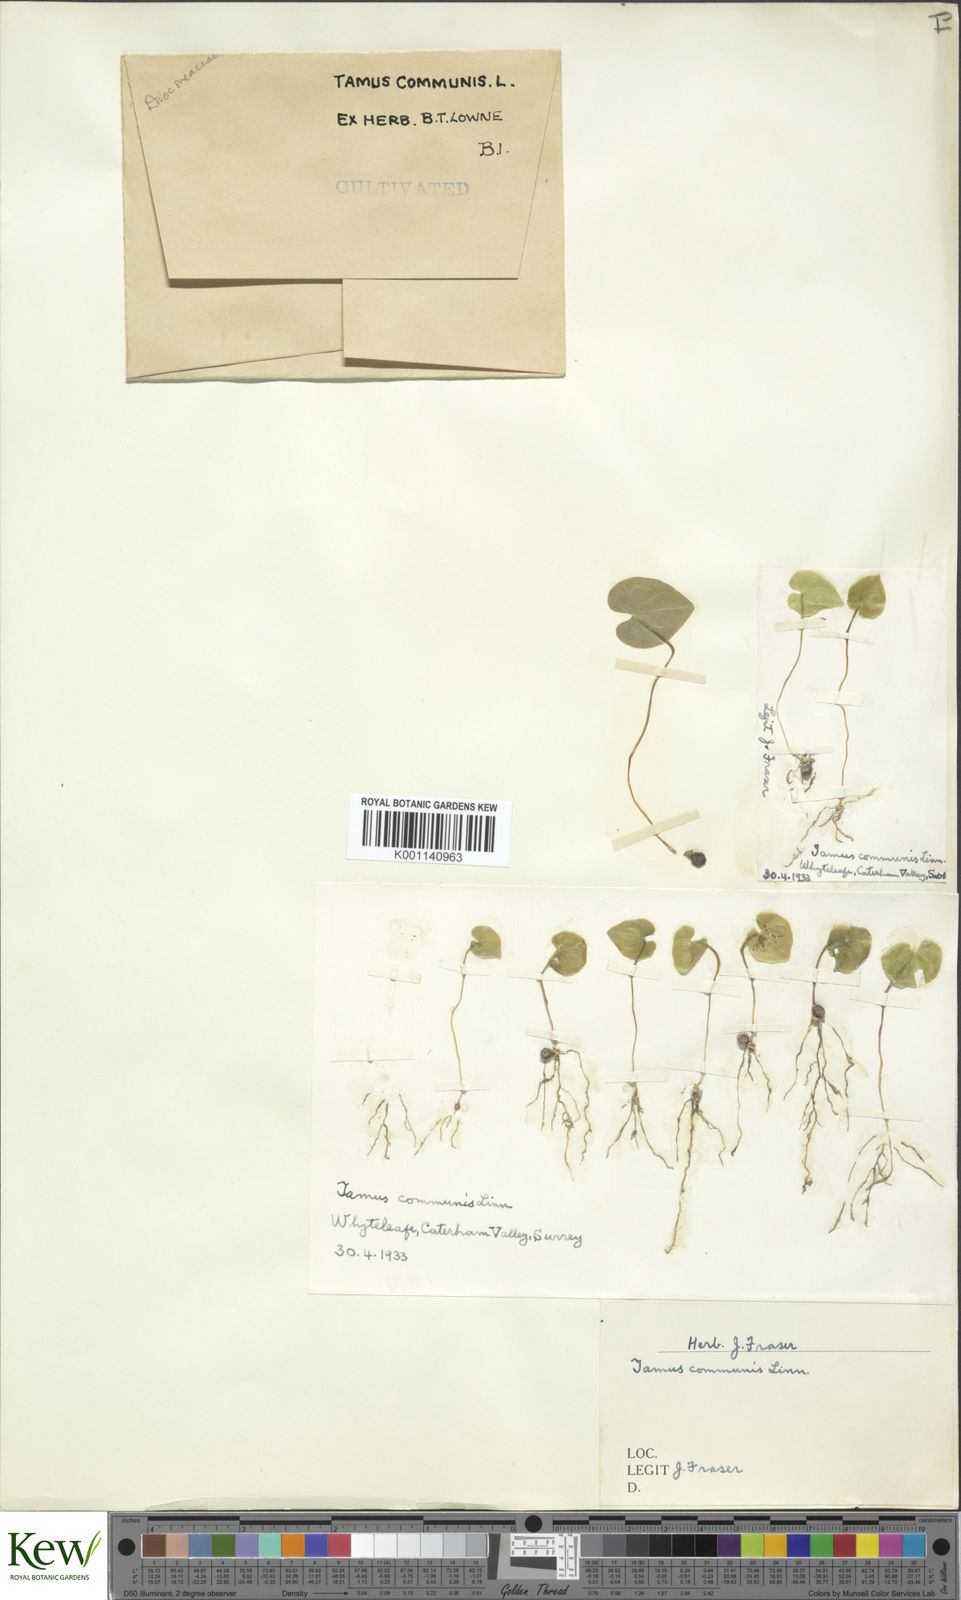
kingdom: Plantae
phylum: Tracheophyta
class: Liliopsida
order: Dioscoreales
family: Dioscoreaceae
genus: Dioscorea
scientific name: Dioscorea communis
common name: Black-bindweed
